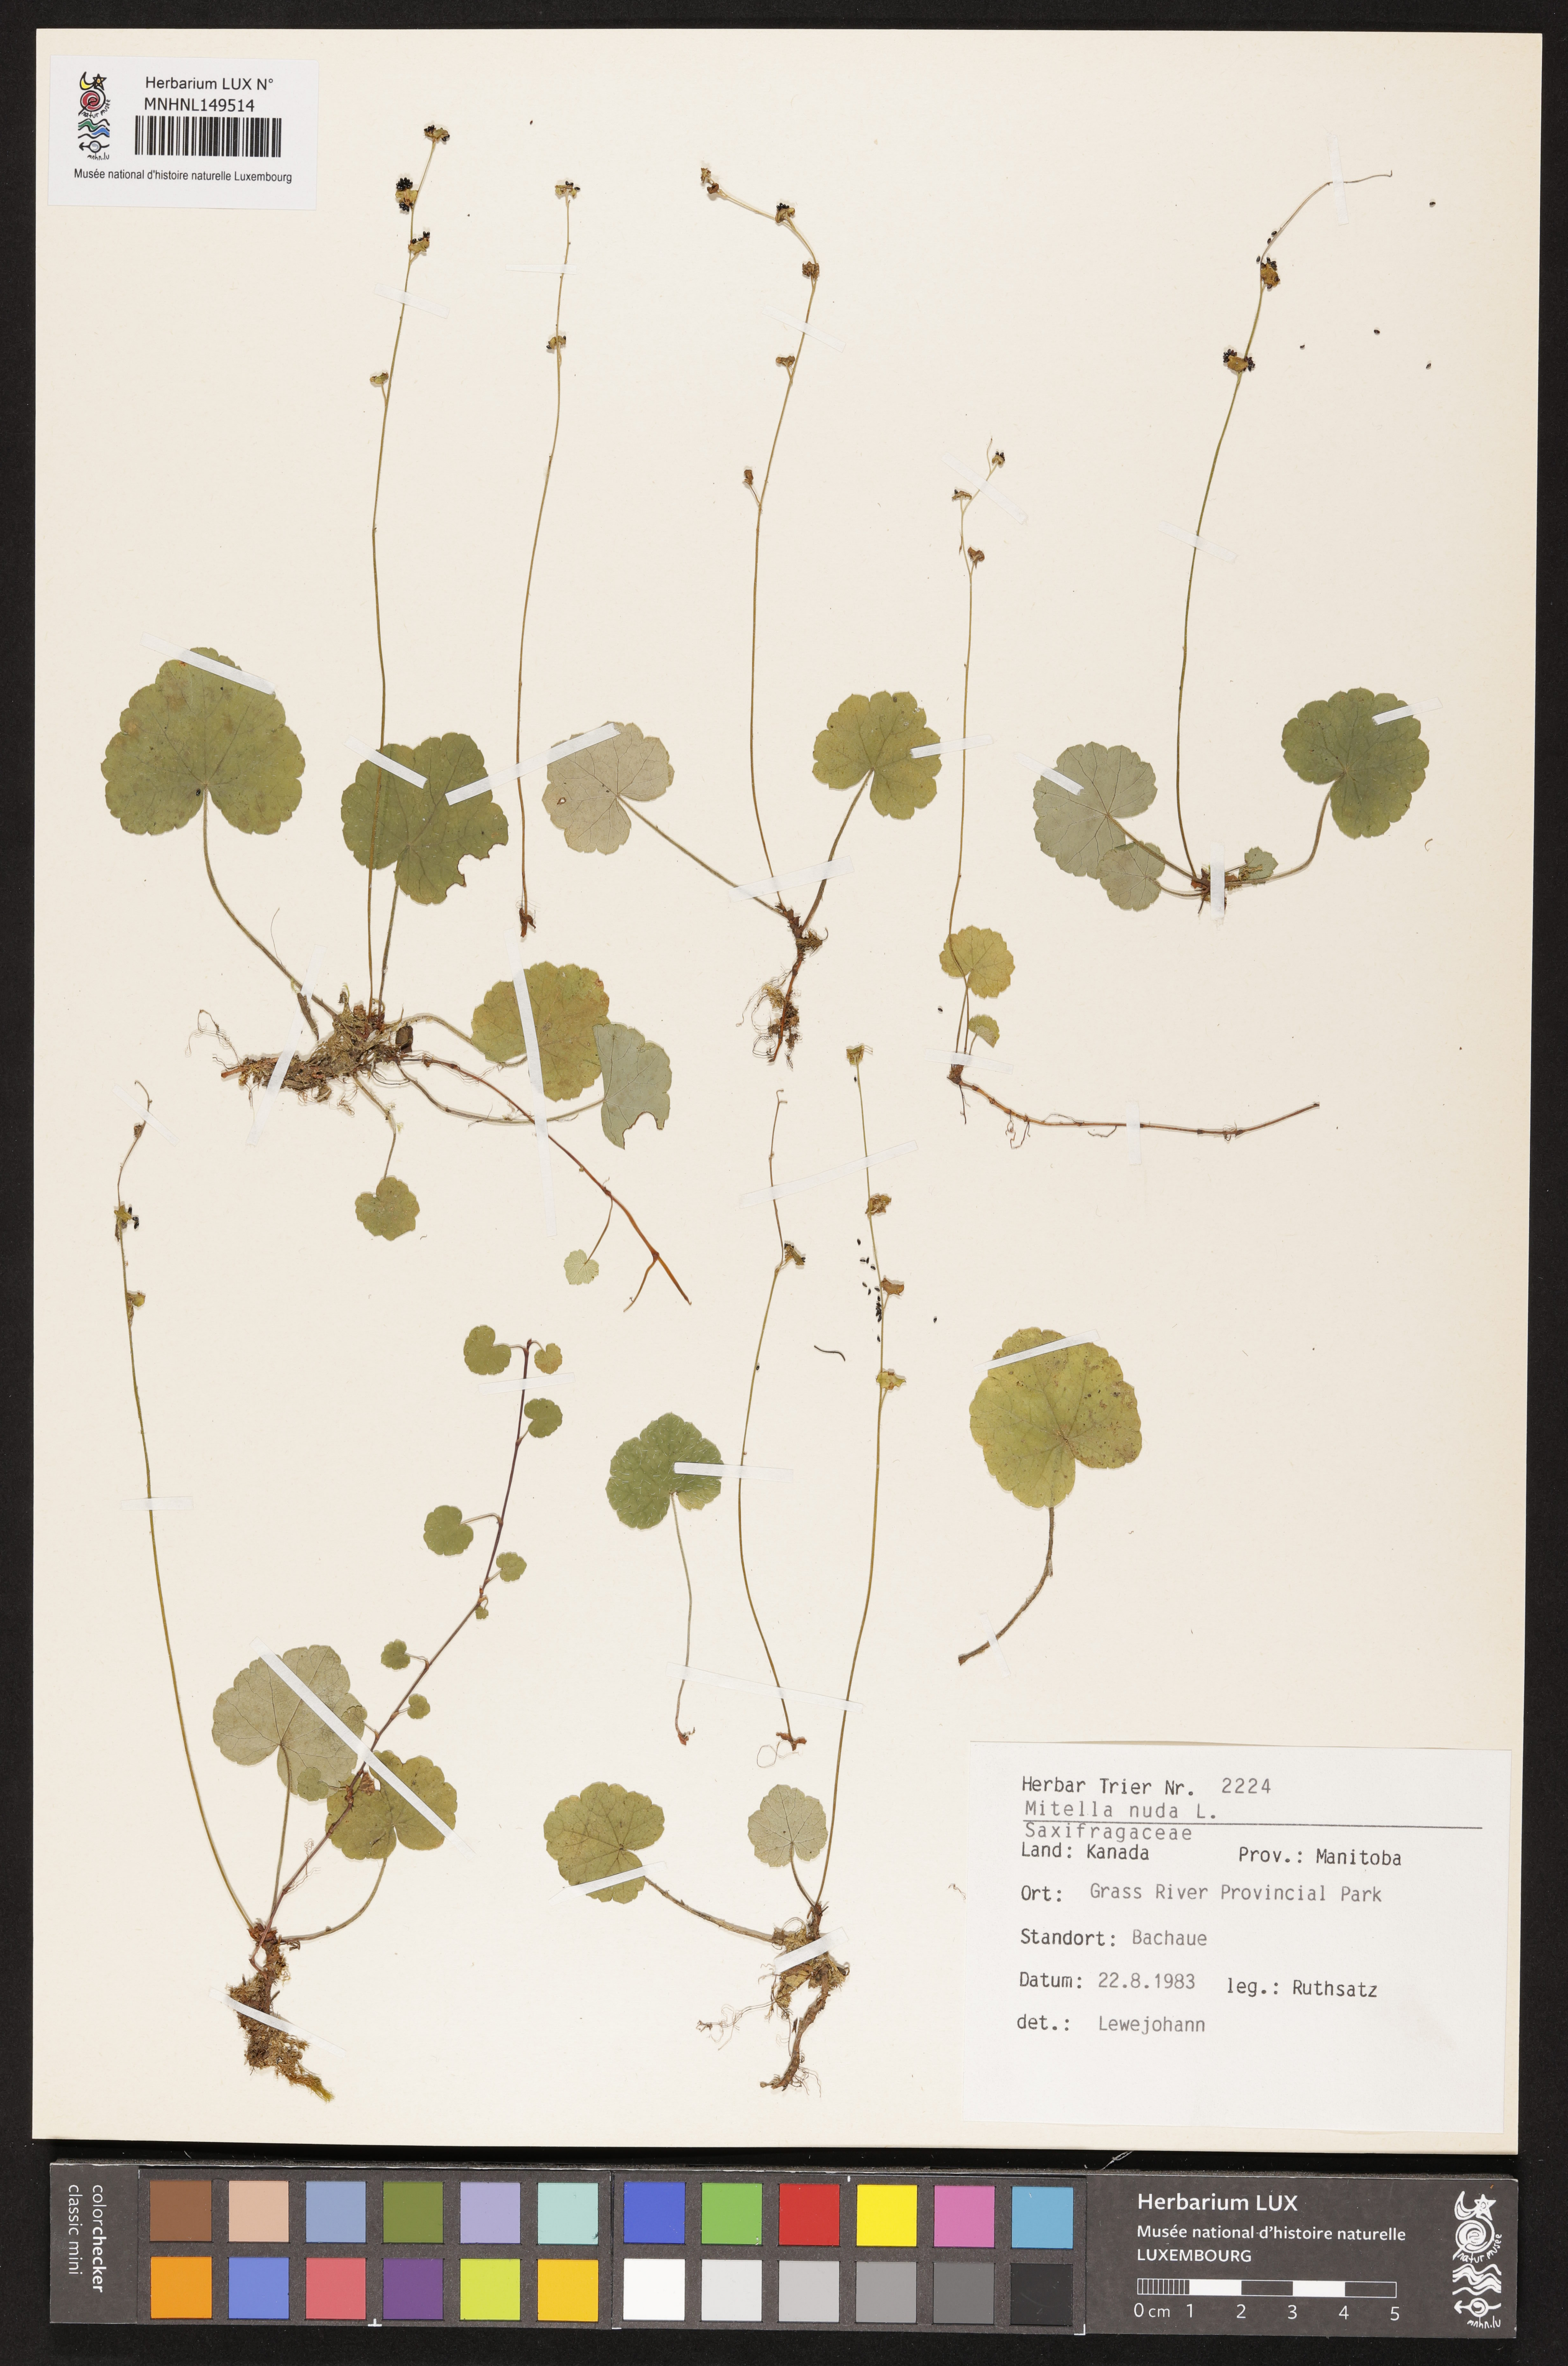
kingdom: Plantae
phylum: Tracheophyta
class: Magnoliopsida
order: Saxifragales
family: Saxifragaceae
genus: Mitella
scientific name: Mitella nuda
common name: Bare-stemmed bishop's-cap
